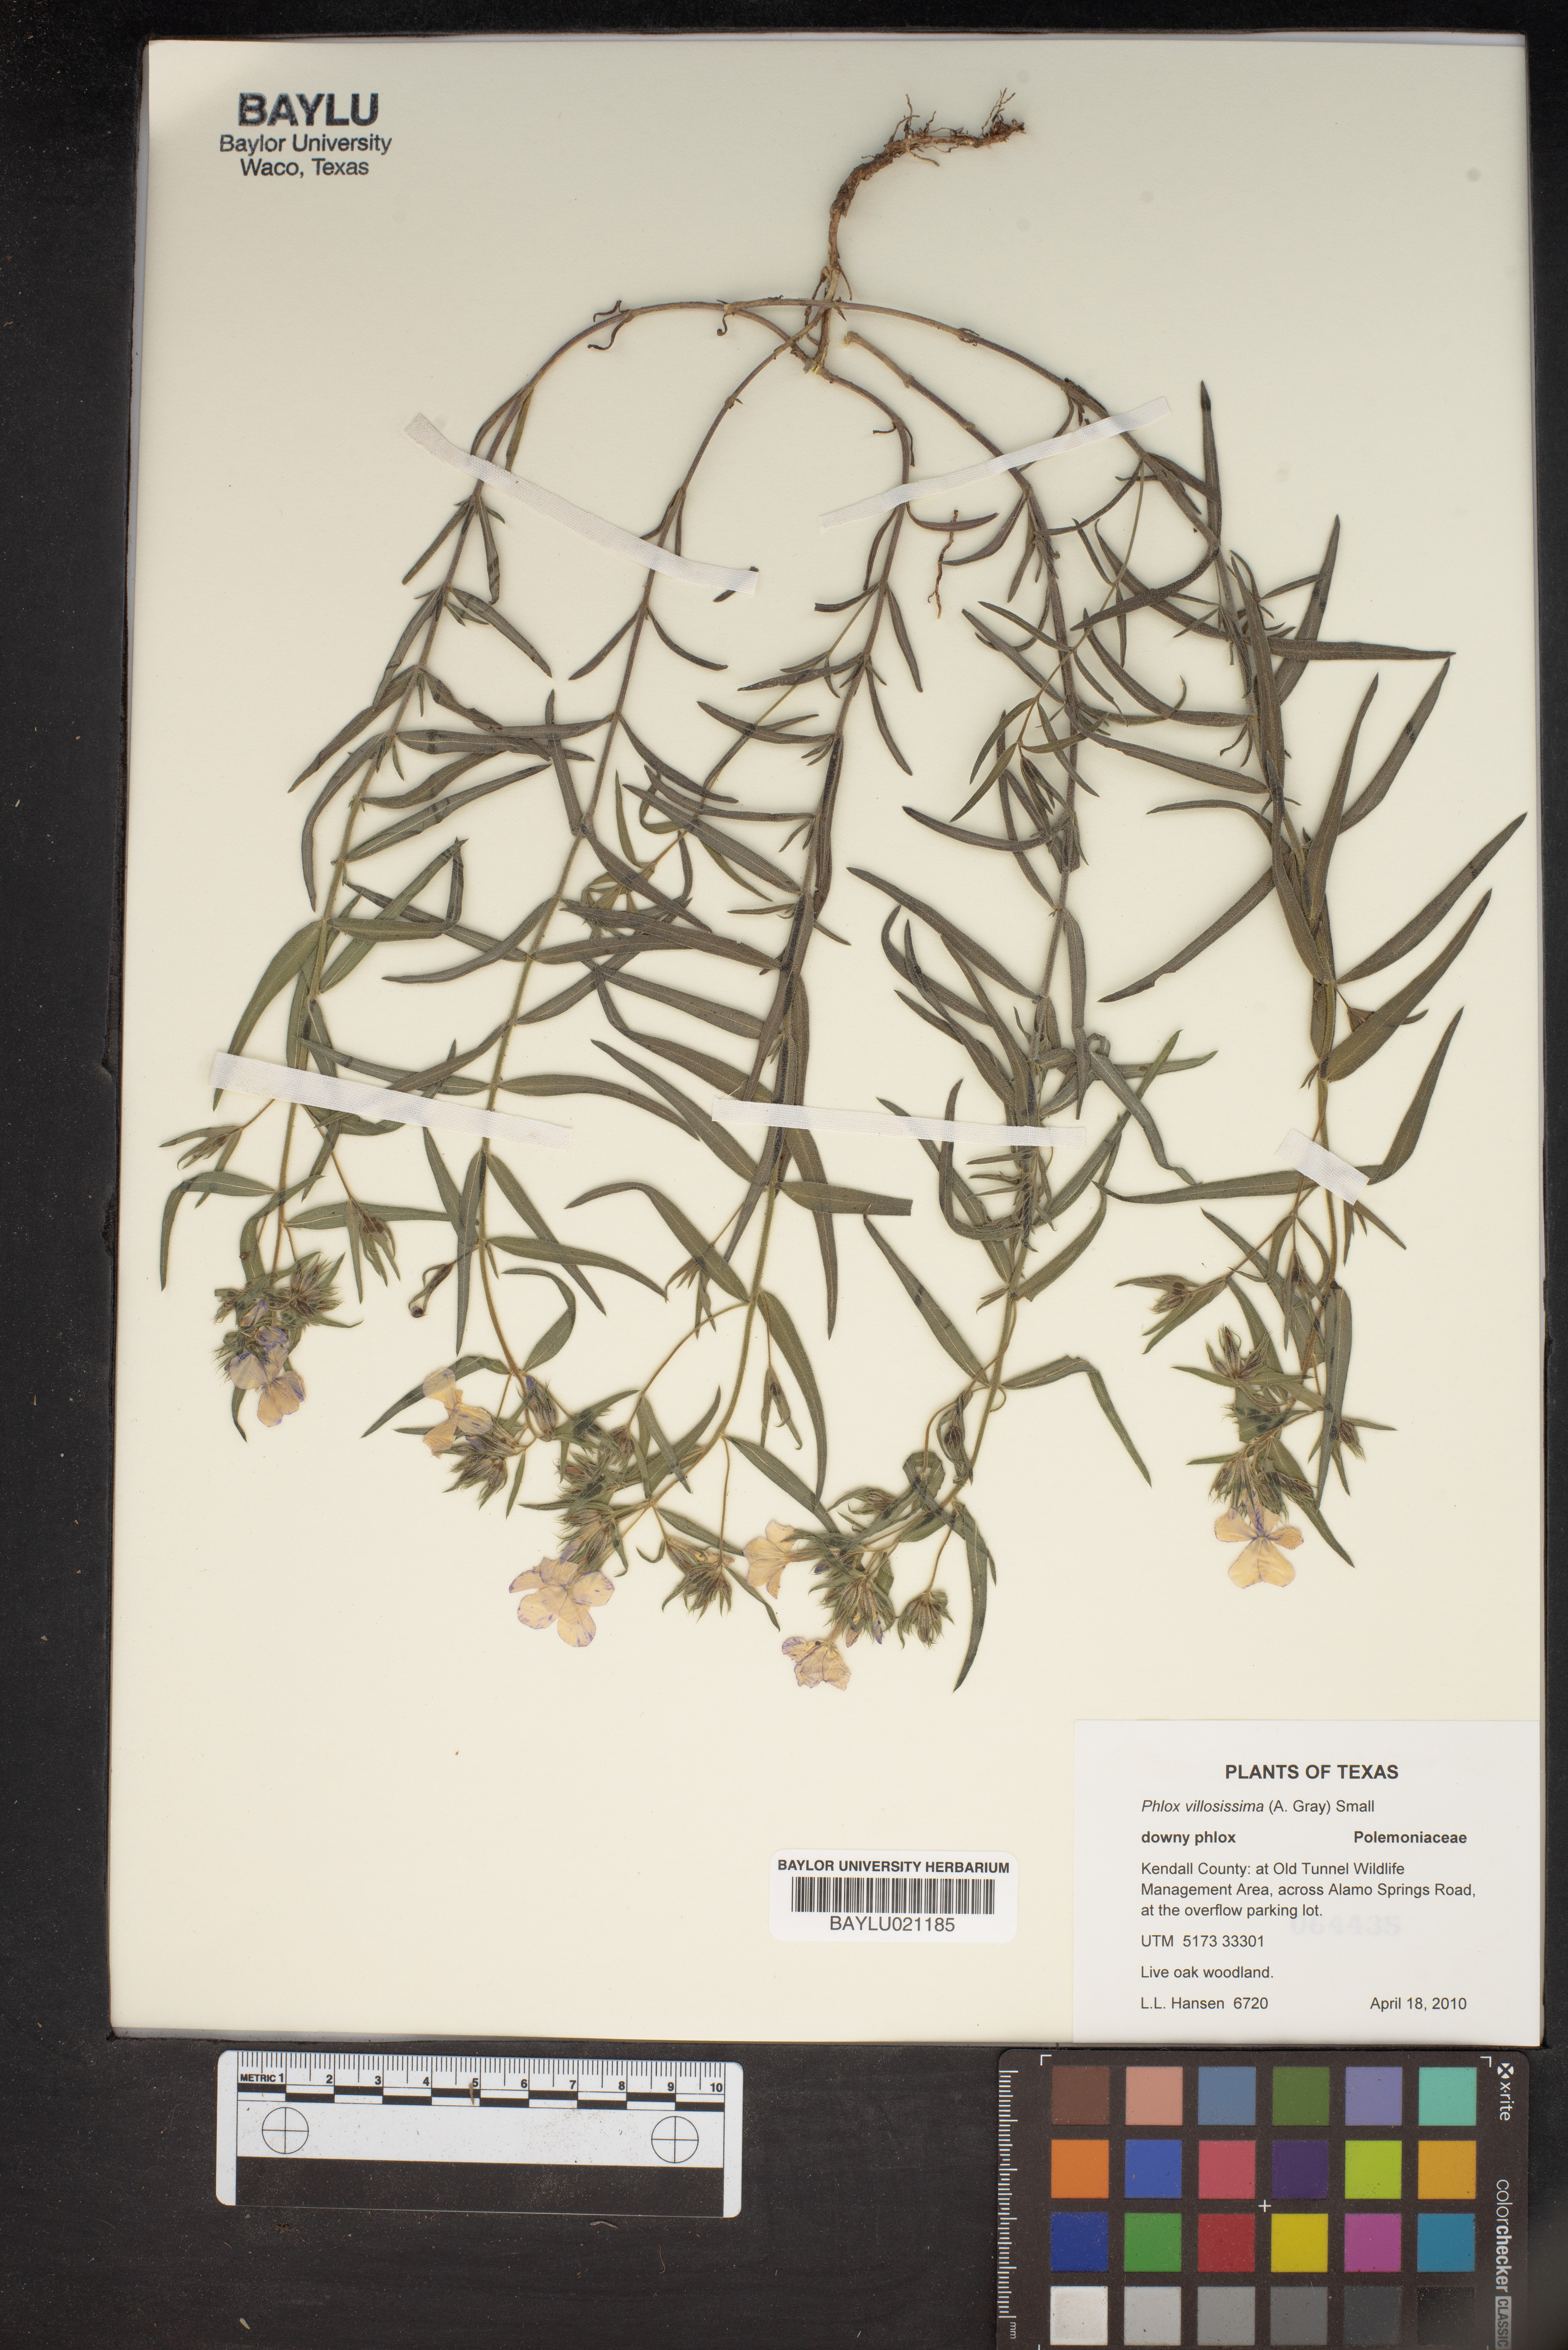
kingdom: Plantae
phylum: Tracheophyta
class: Magnoliopsida
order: Ericales
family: Polemoniaceae
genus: Phlox
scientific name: Phlox pilosa
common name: Prairie phlox
